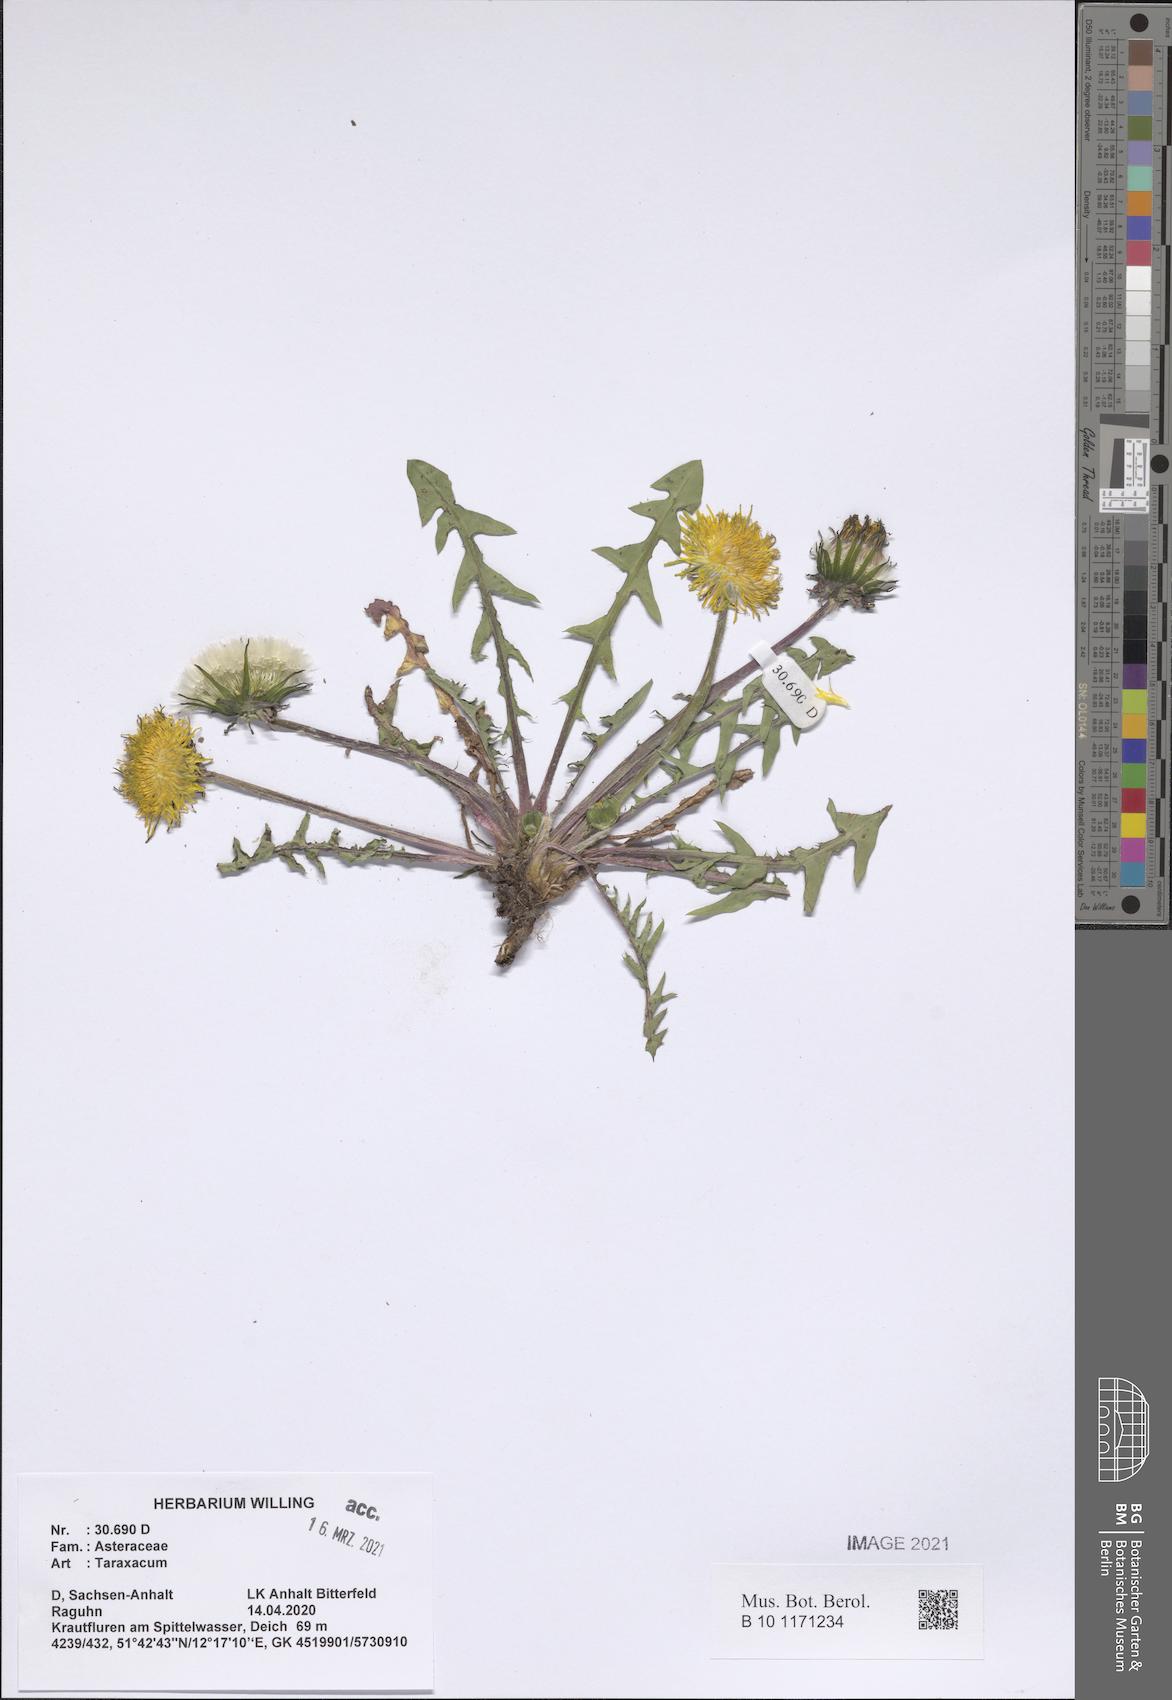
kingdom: Plantae
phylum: Tracheophyta
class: Magnoliopsida
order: Asterales
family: Asteraceae
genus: Taraxacum
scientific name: Taraxacum
